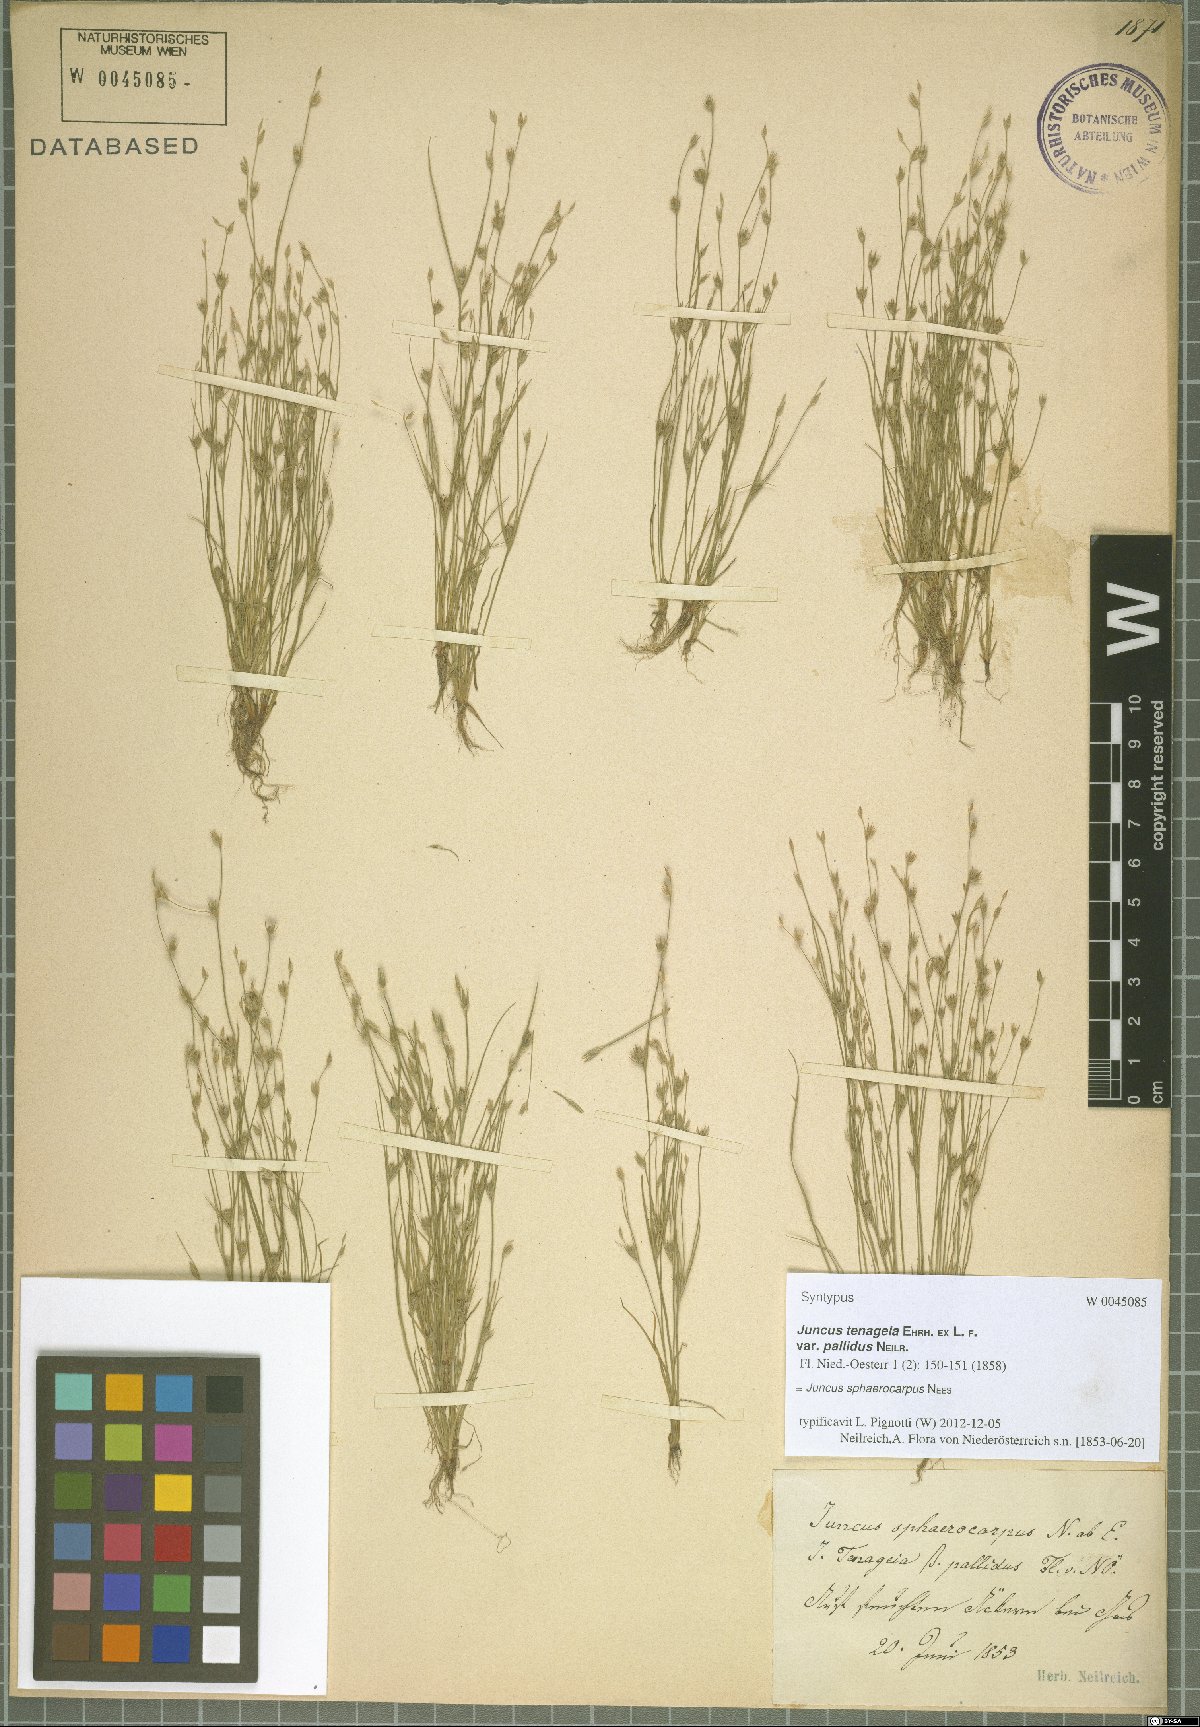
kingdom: Plantae
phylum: Tracheophyta
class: Liliopsida
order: Poales
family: Juncaceae
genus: Juncus
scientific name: Juncus sphaerocarpus
